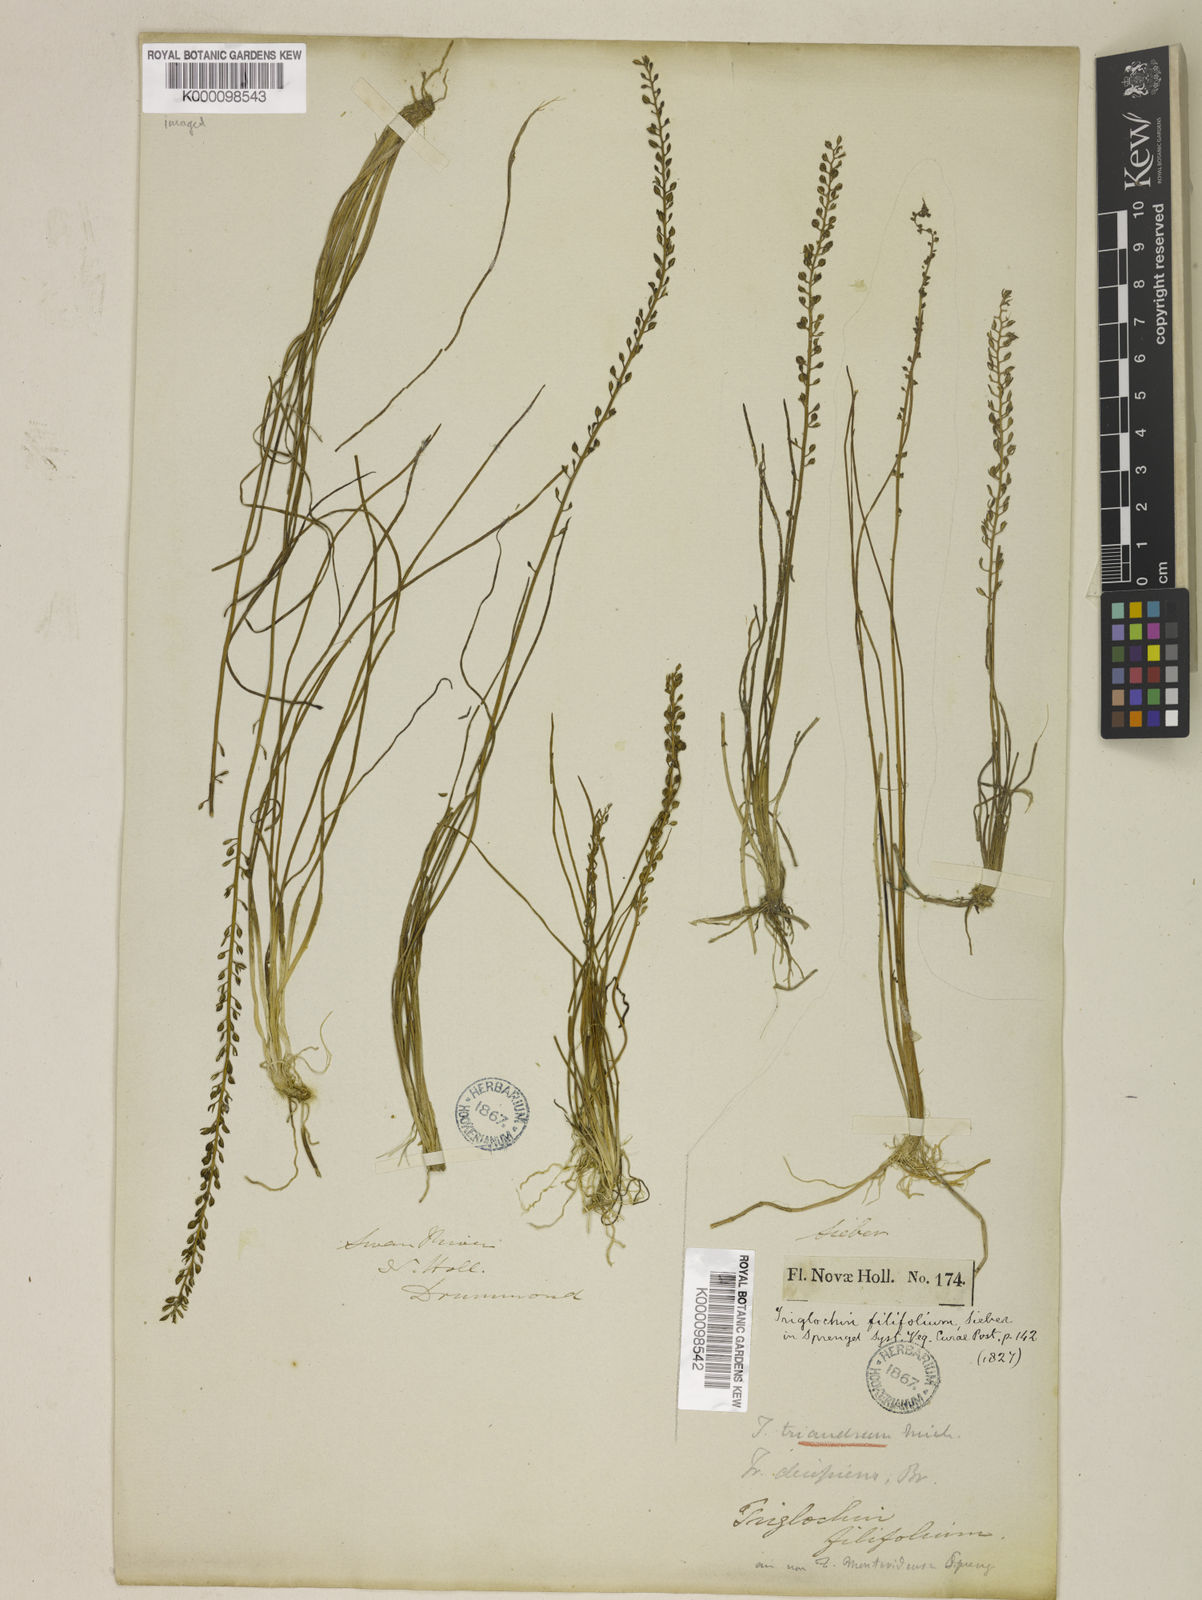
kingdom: Plantae
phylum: Tracheophyta
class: Liliopsida
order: Alismatales
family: Juncaginaceae
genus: Triglochin
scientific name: Triglochin striata
